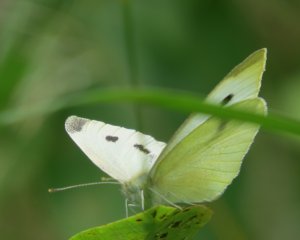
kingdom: Animalia
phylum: Arthropoda
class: Insecta
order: Lepidoptera
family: Pieridae
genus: Pieris
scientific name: Pieris rapae
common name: Cabbage White
